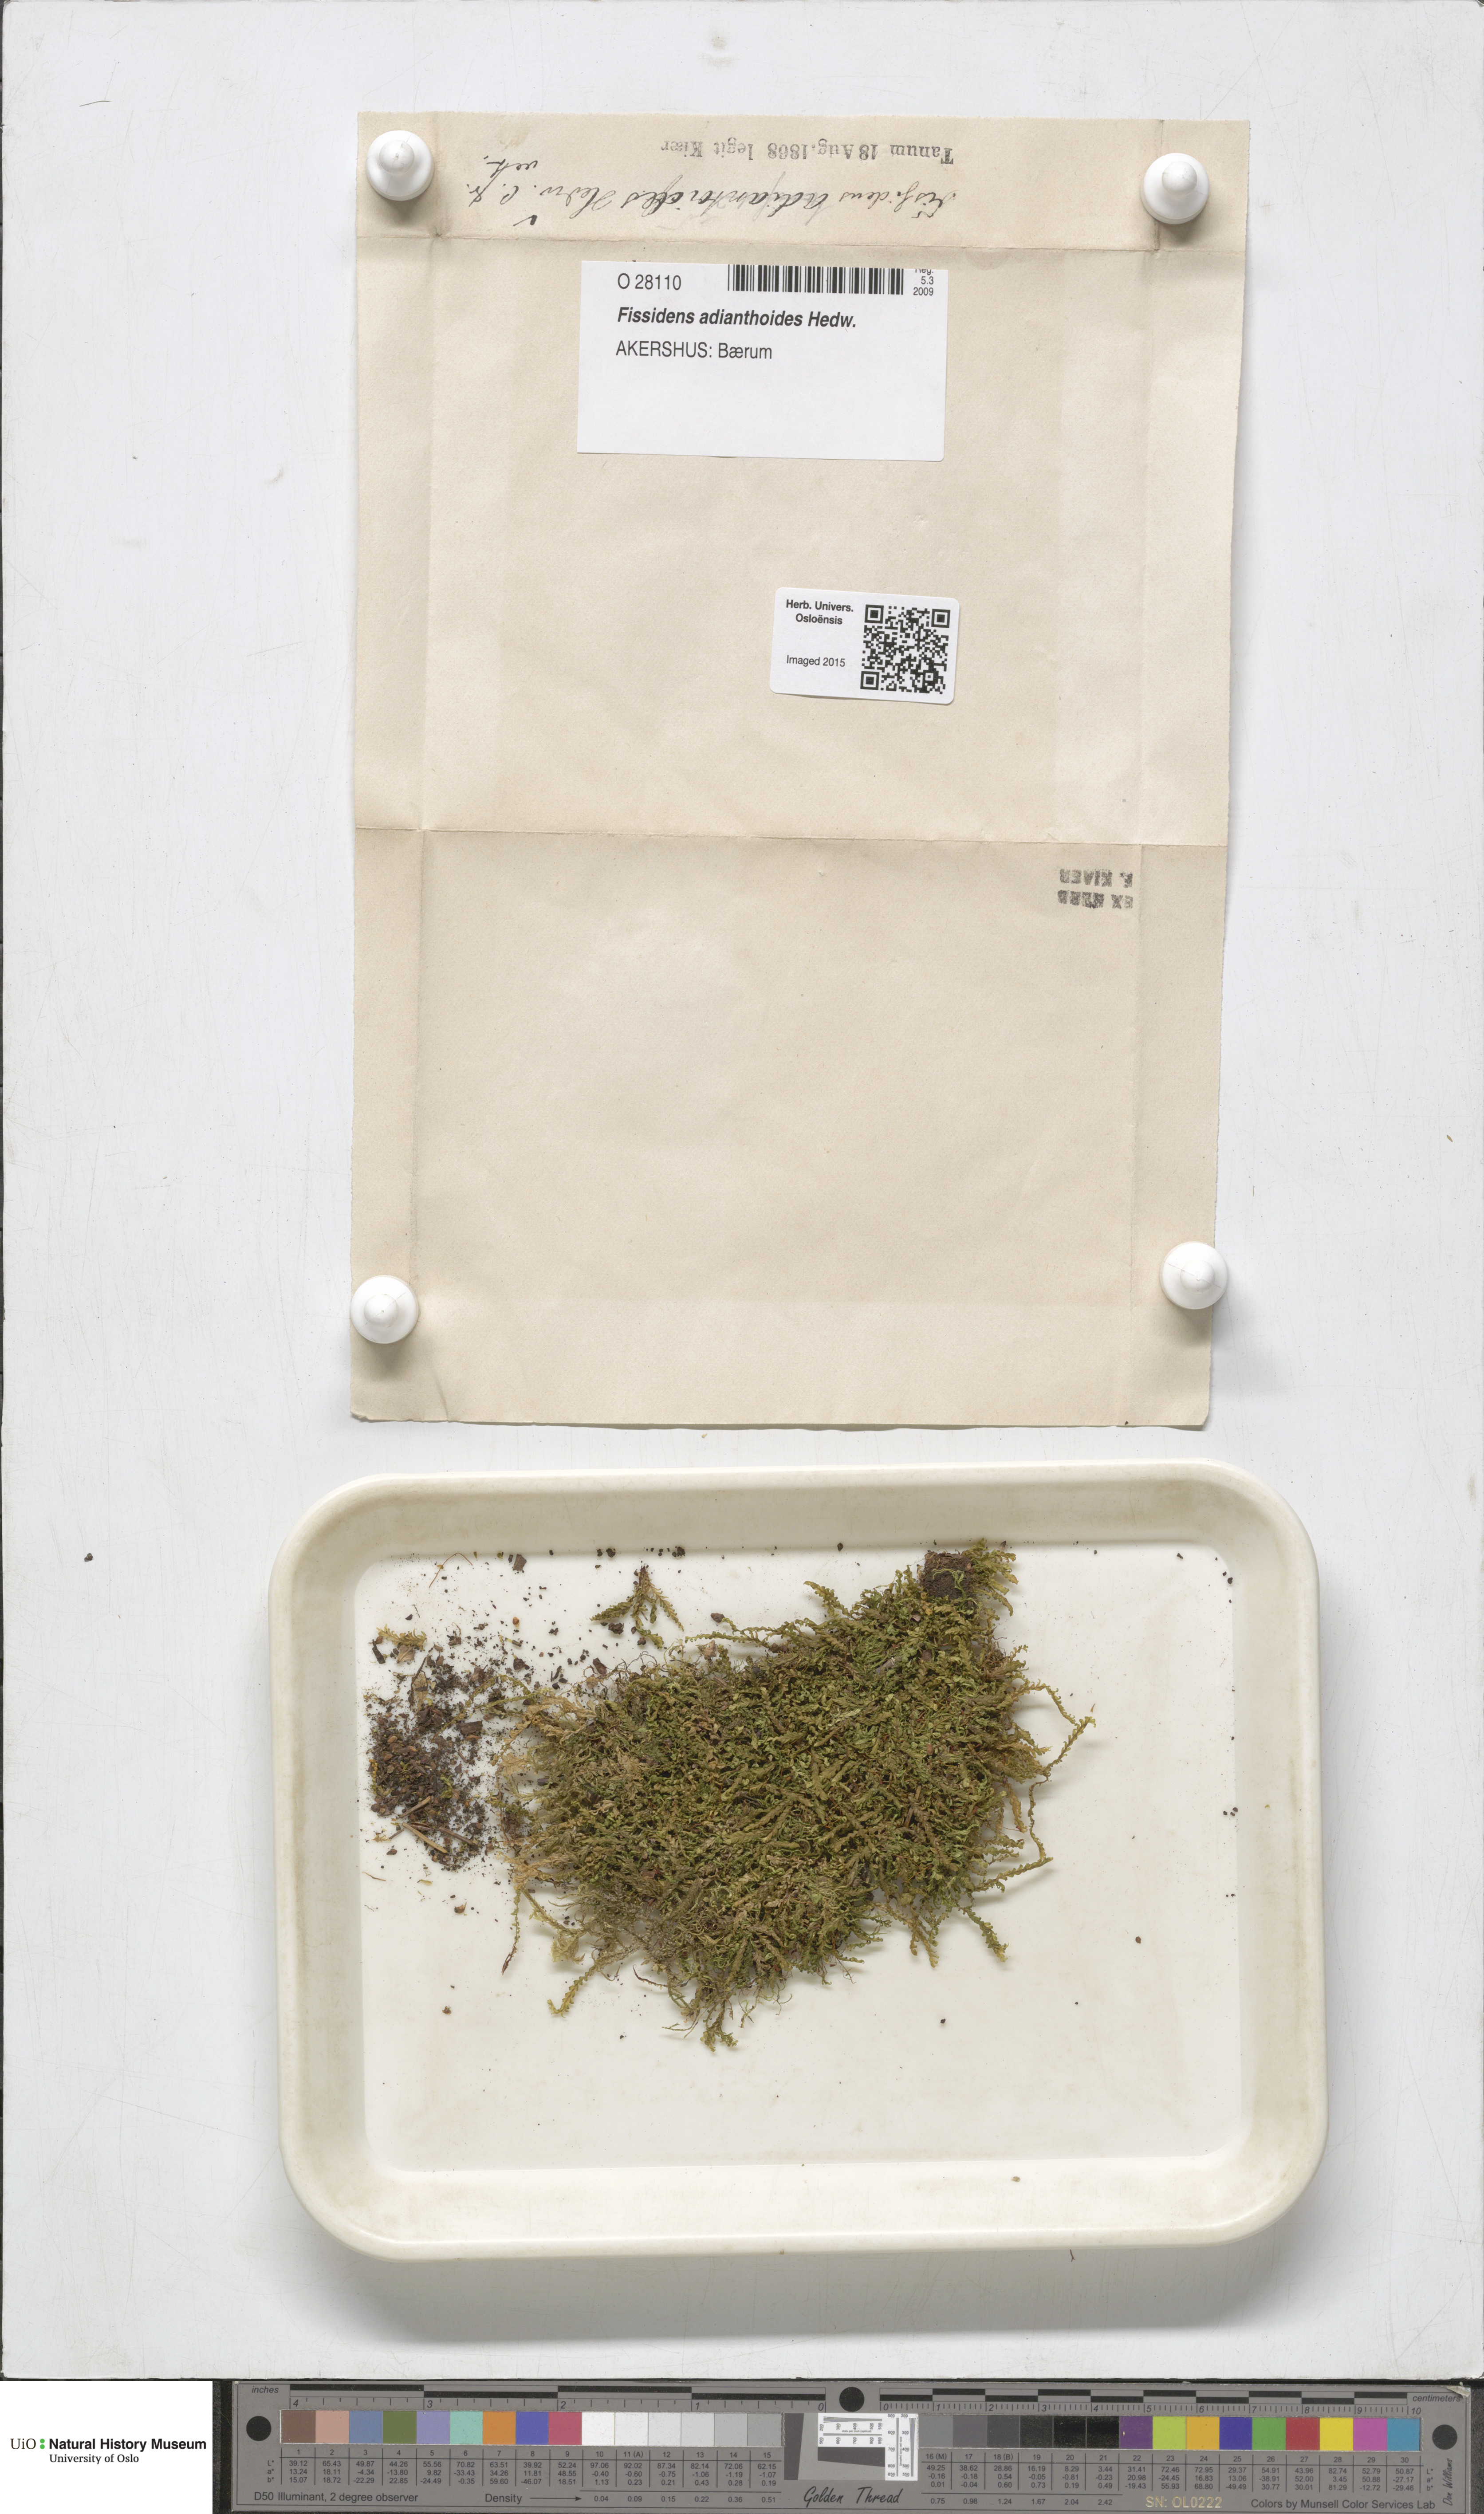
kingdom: Plantae
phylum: Bryophyta
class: Bryopsida
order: Dicranales
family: Fissidentaceae
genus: Fissidens
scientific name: Fissidens adianthoides
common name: Maidenhair pocket moss
